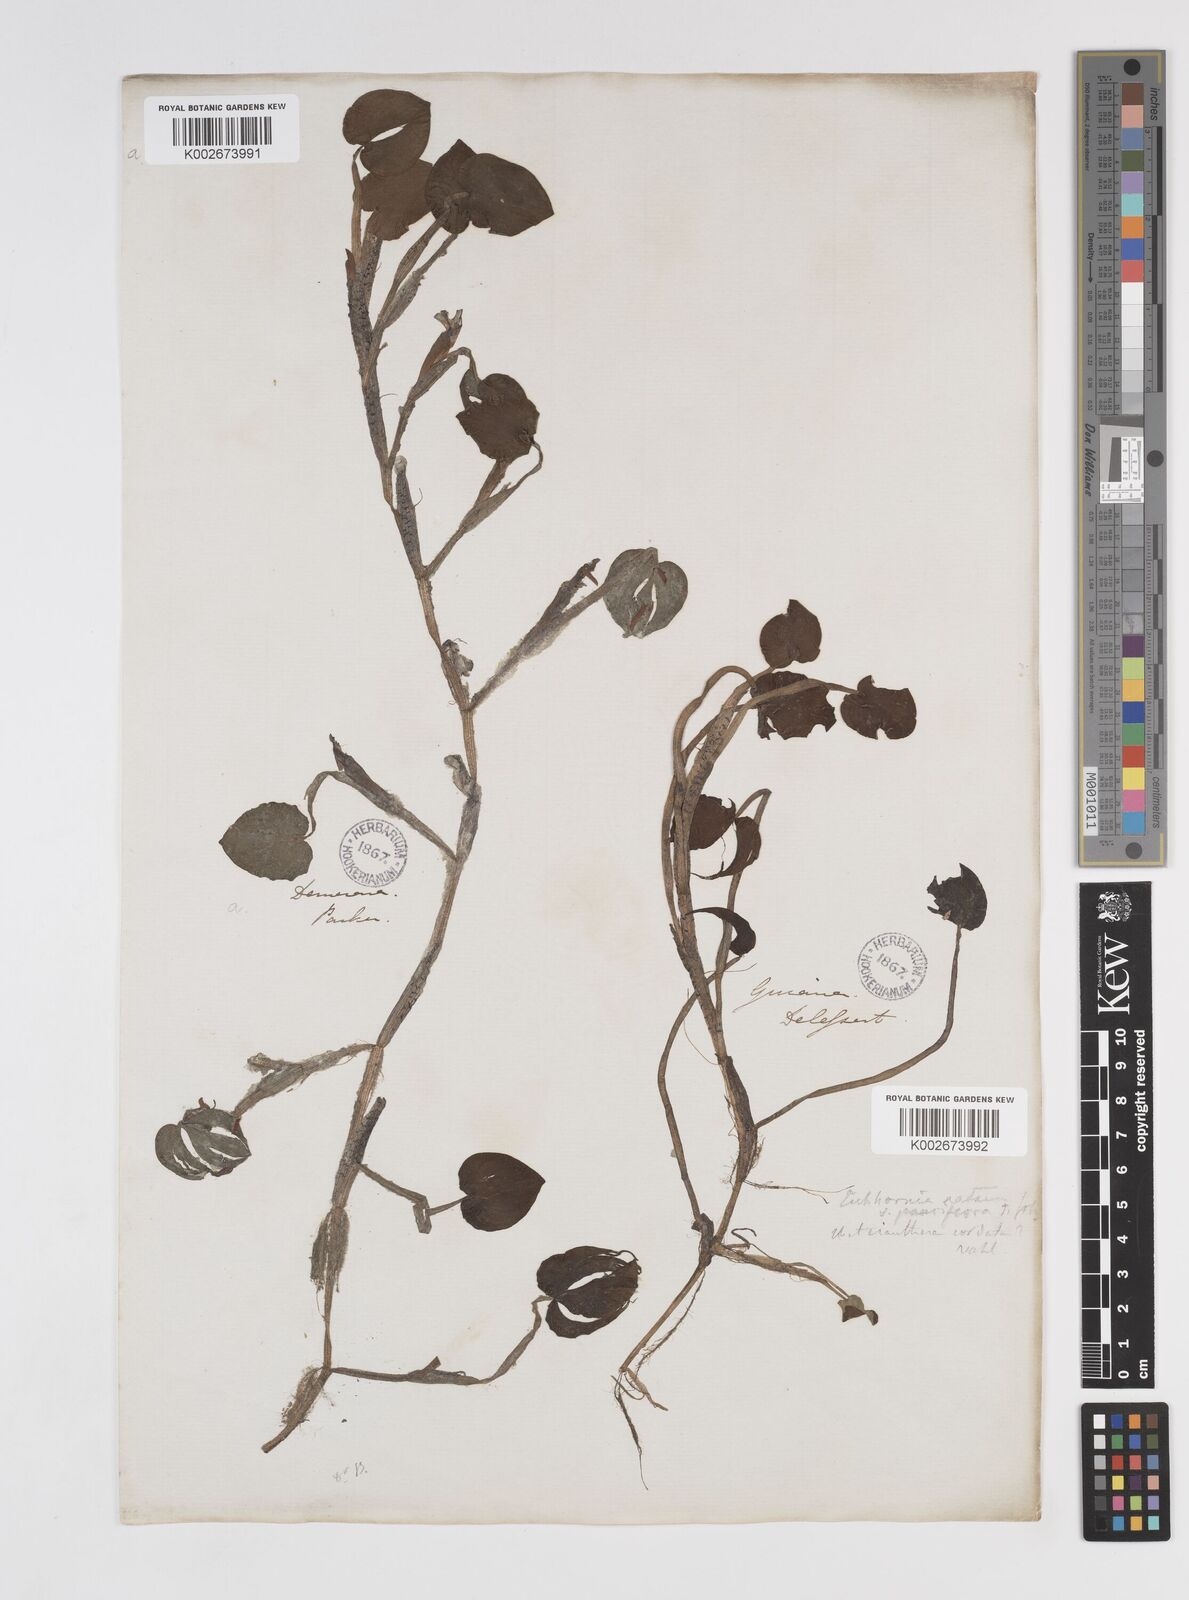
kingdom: Plantae
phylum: Tracheophyta
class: Liliopsida
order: Commelinales
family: Pontederiaceae
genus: Pontederia
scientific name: Pontederia diversifolia
